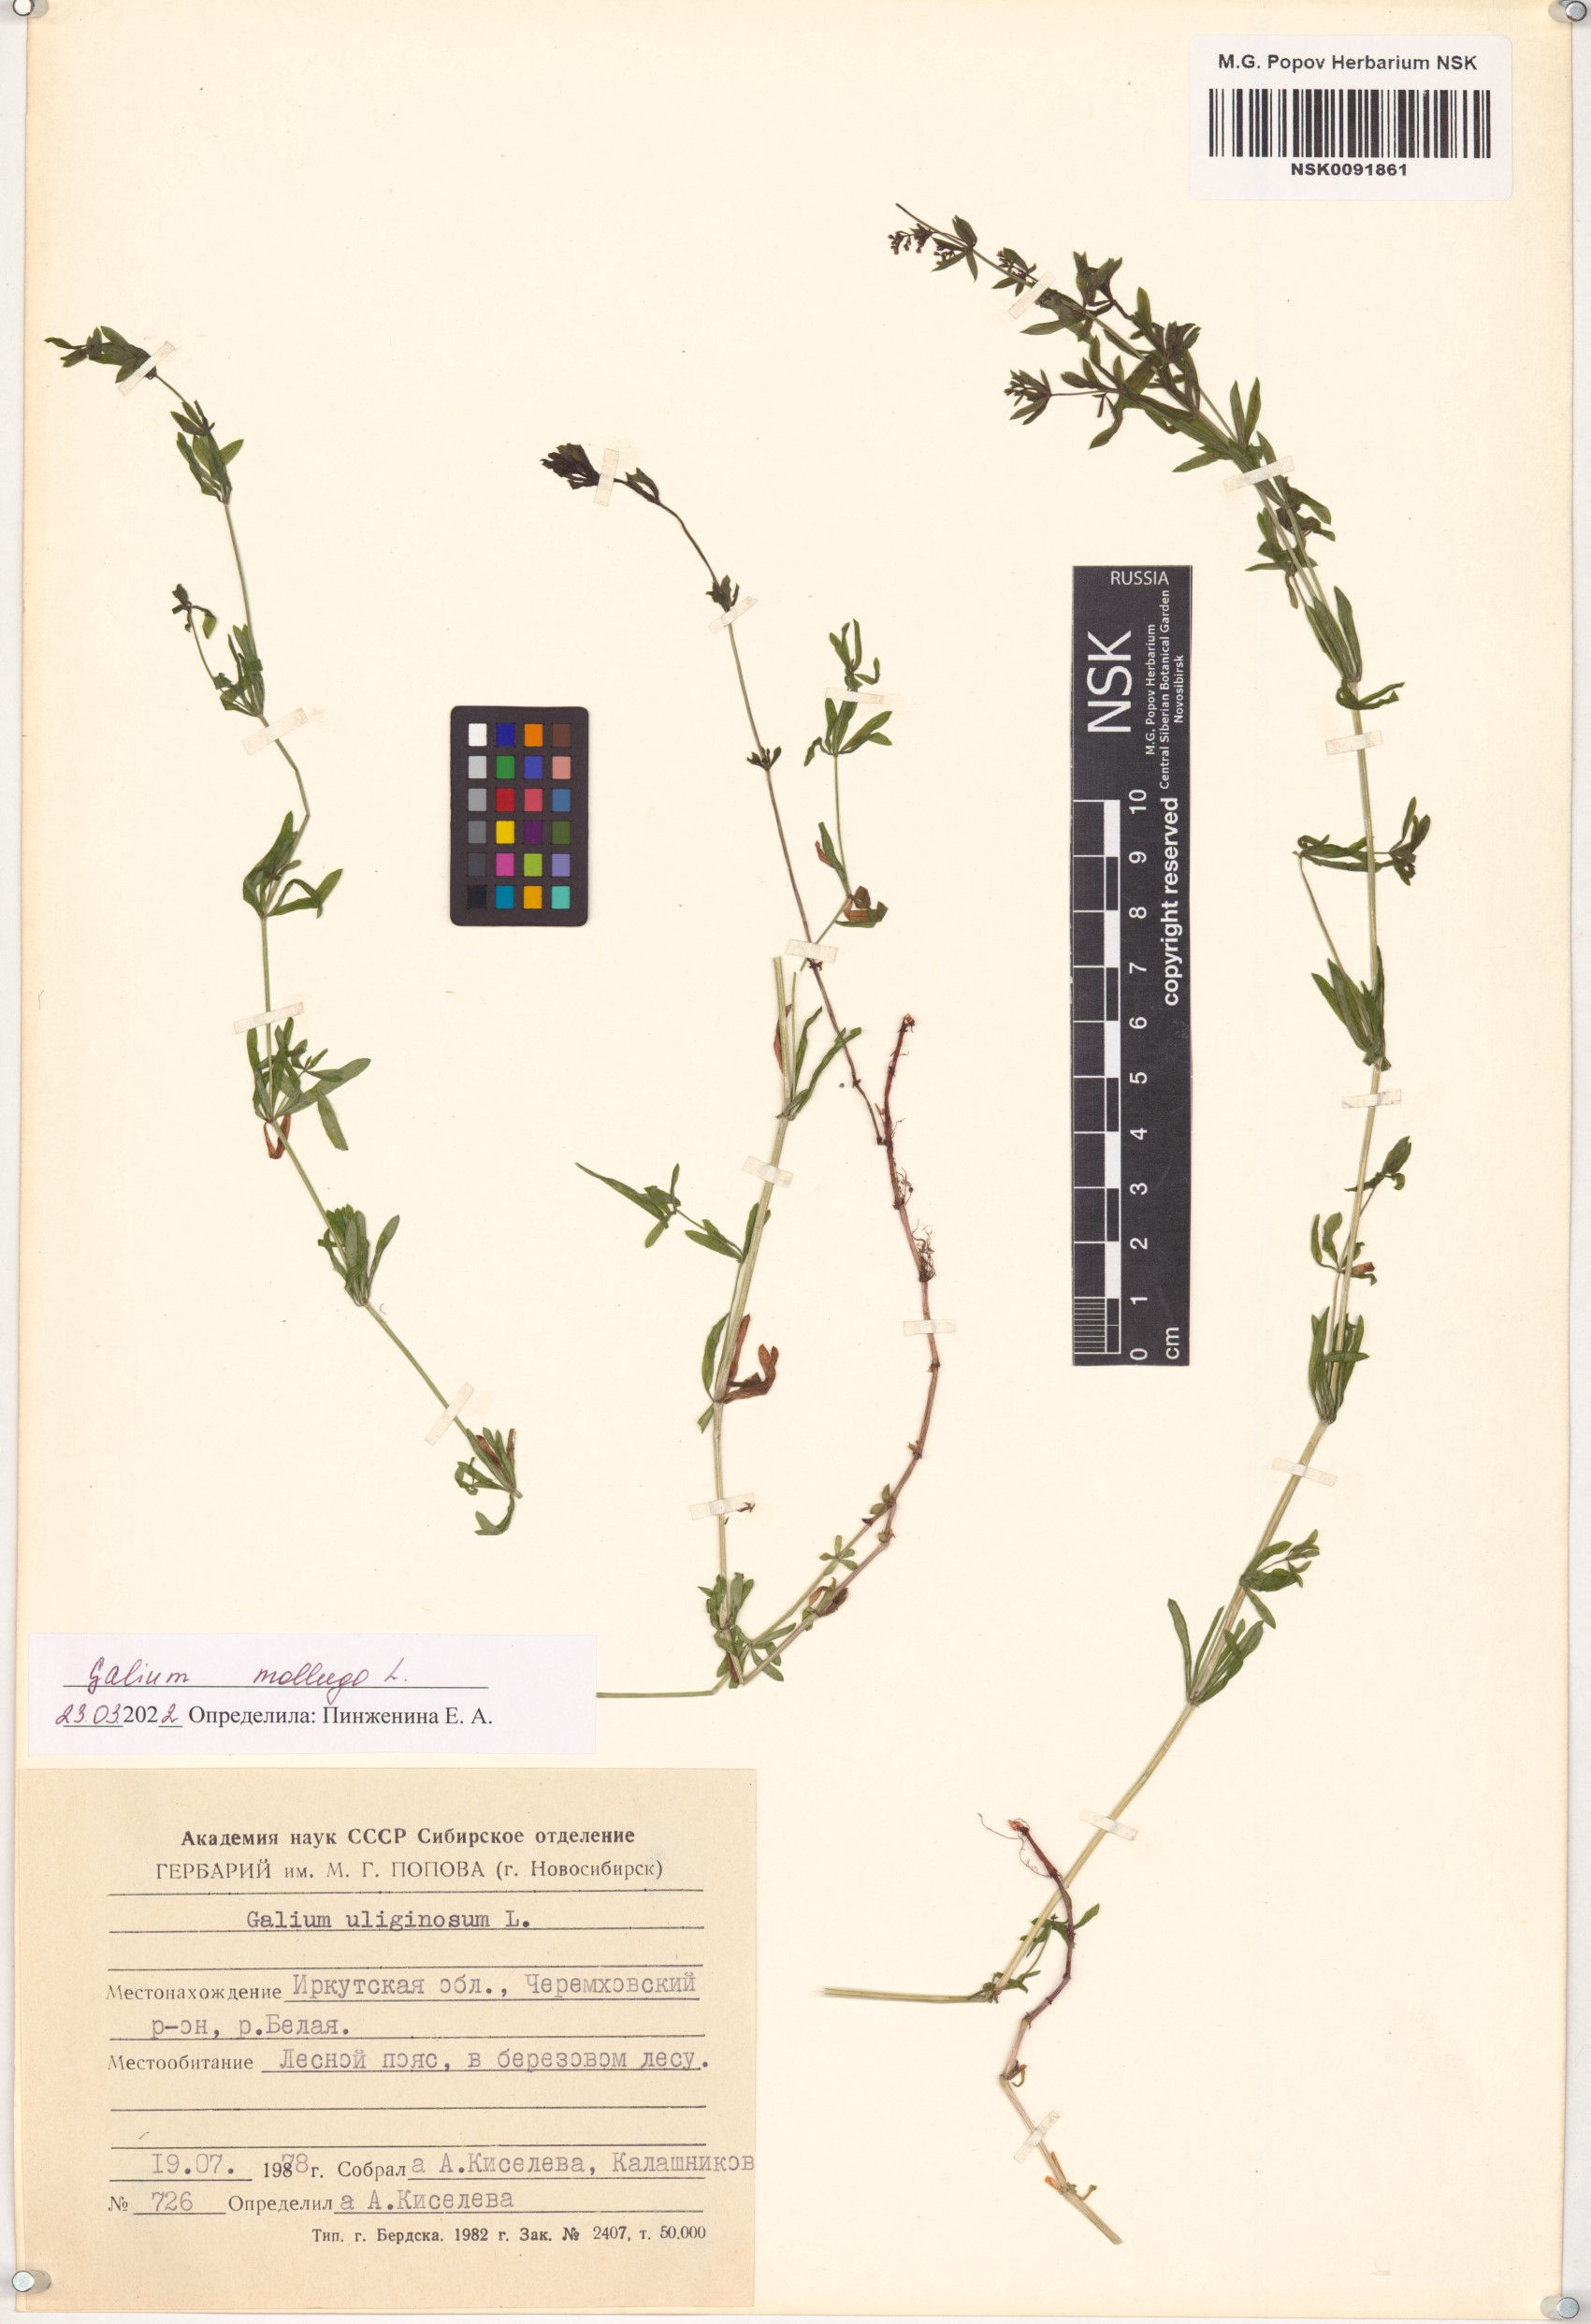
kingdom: Plantae
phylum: Tracheophyta
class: Magnoliopsida
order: Gentianales
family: Rubiaceae
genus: Galium
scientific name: Galium mollugo
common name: Hedge bedstraw
